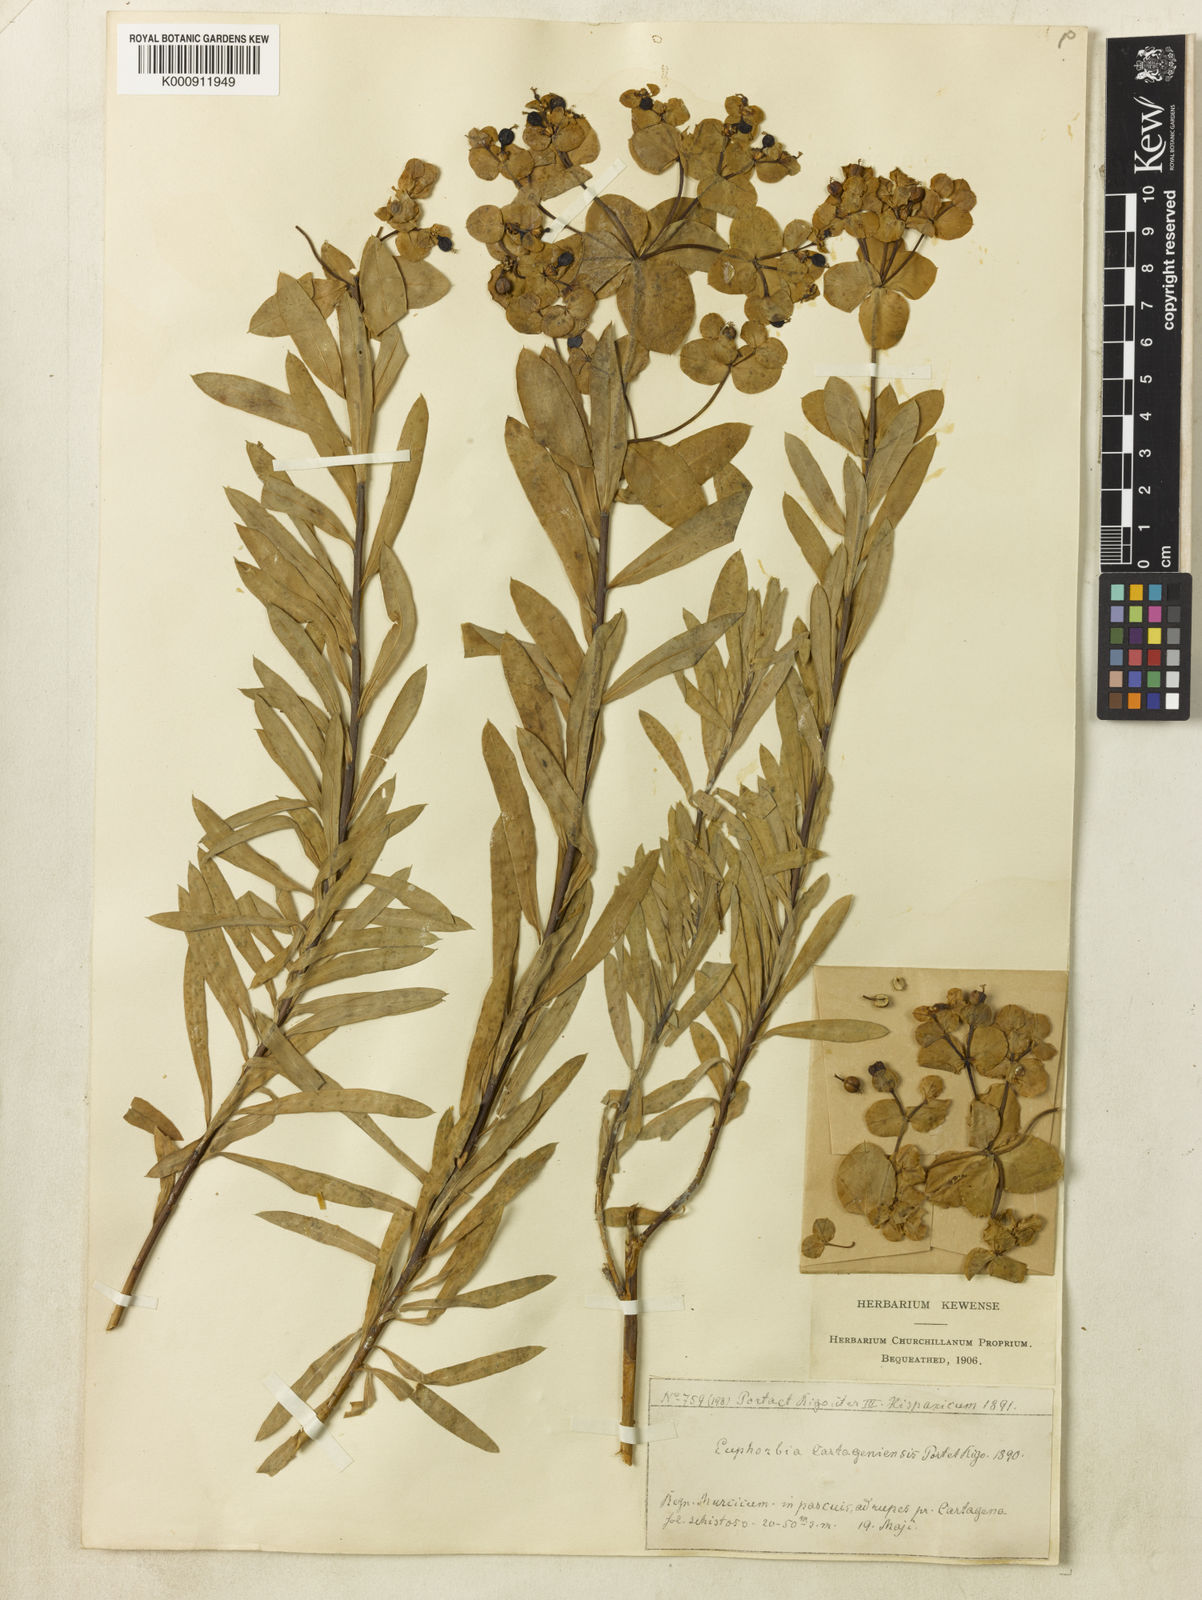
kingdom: Plantae
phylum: Tracheophyta
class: Magnoliopsida
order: Malpighiales
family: Euphorbiaceae
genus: Euphorbia
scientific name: Euphorbia
